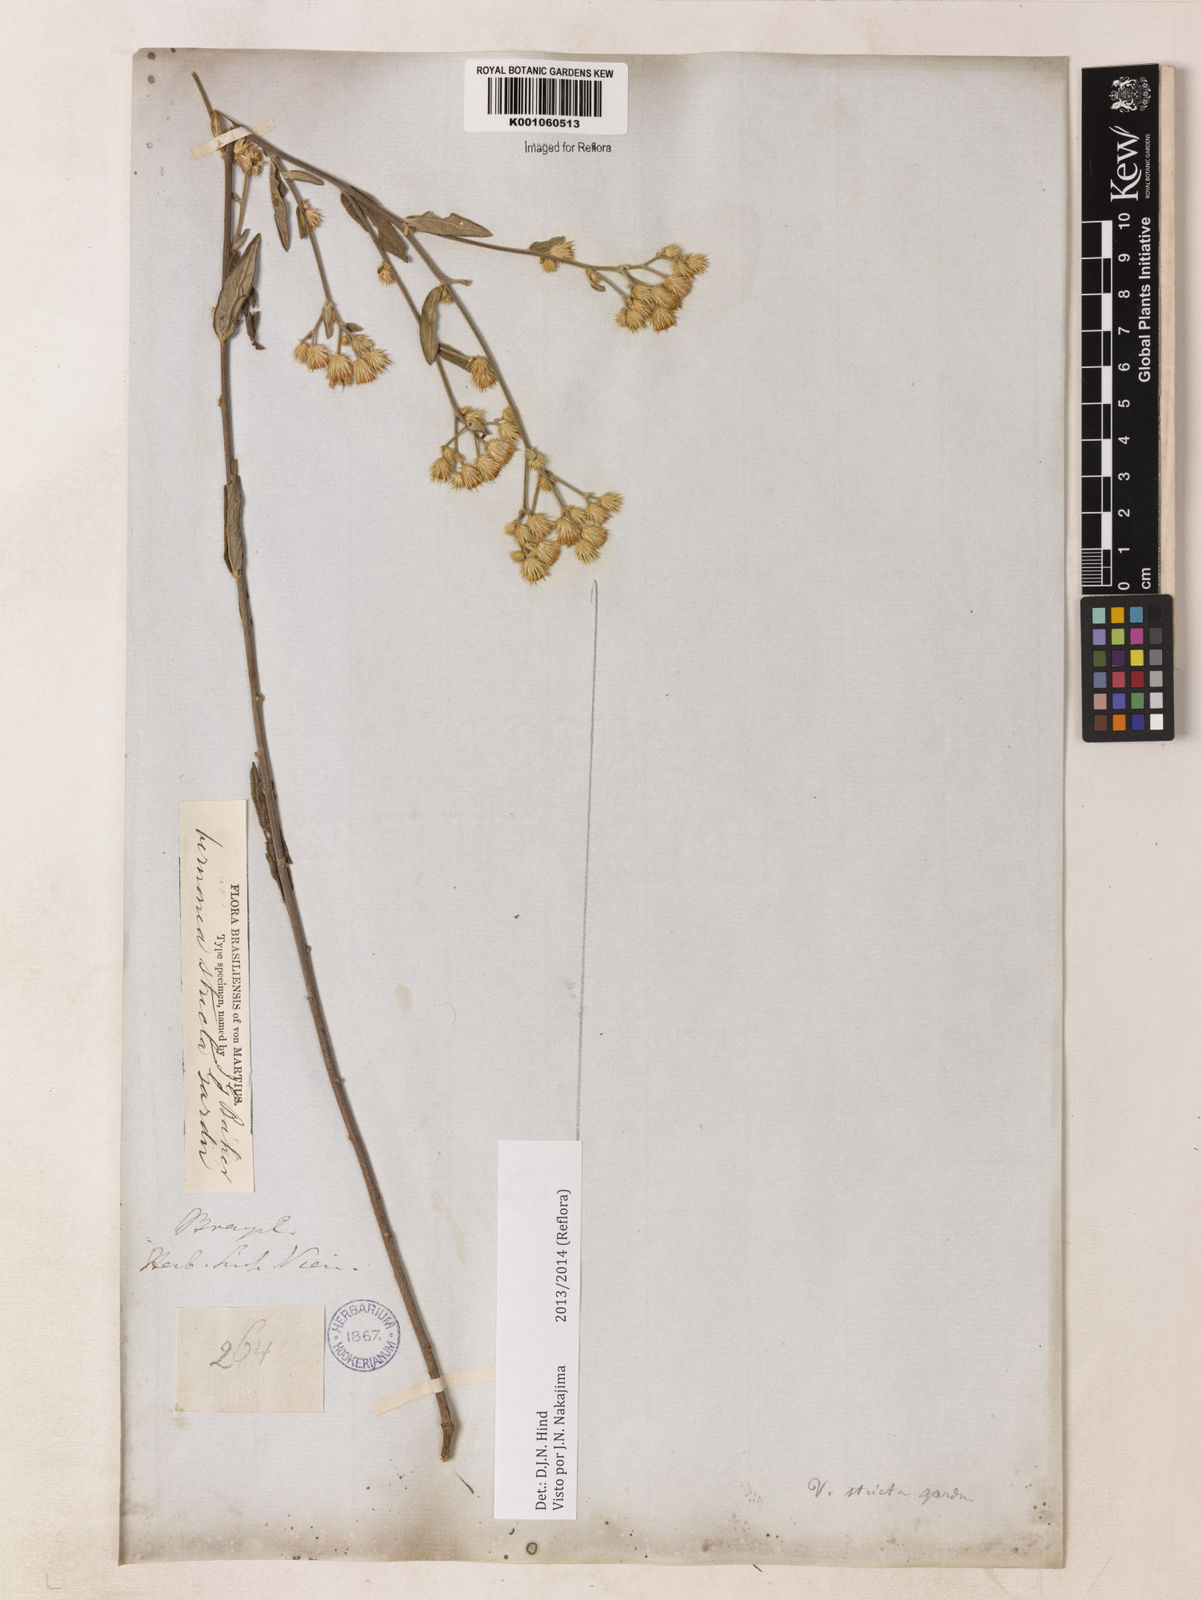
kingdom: Plantae
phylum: Tracheophyta
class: Magnoliopsida
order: Asterales
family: Asteraceae
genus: Echinocoryne
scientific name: Echinocoryne stricta
